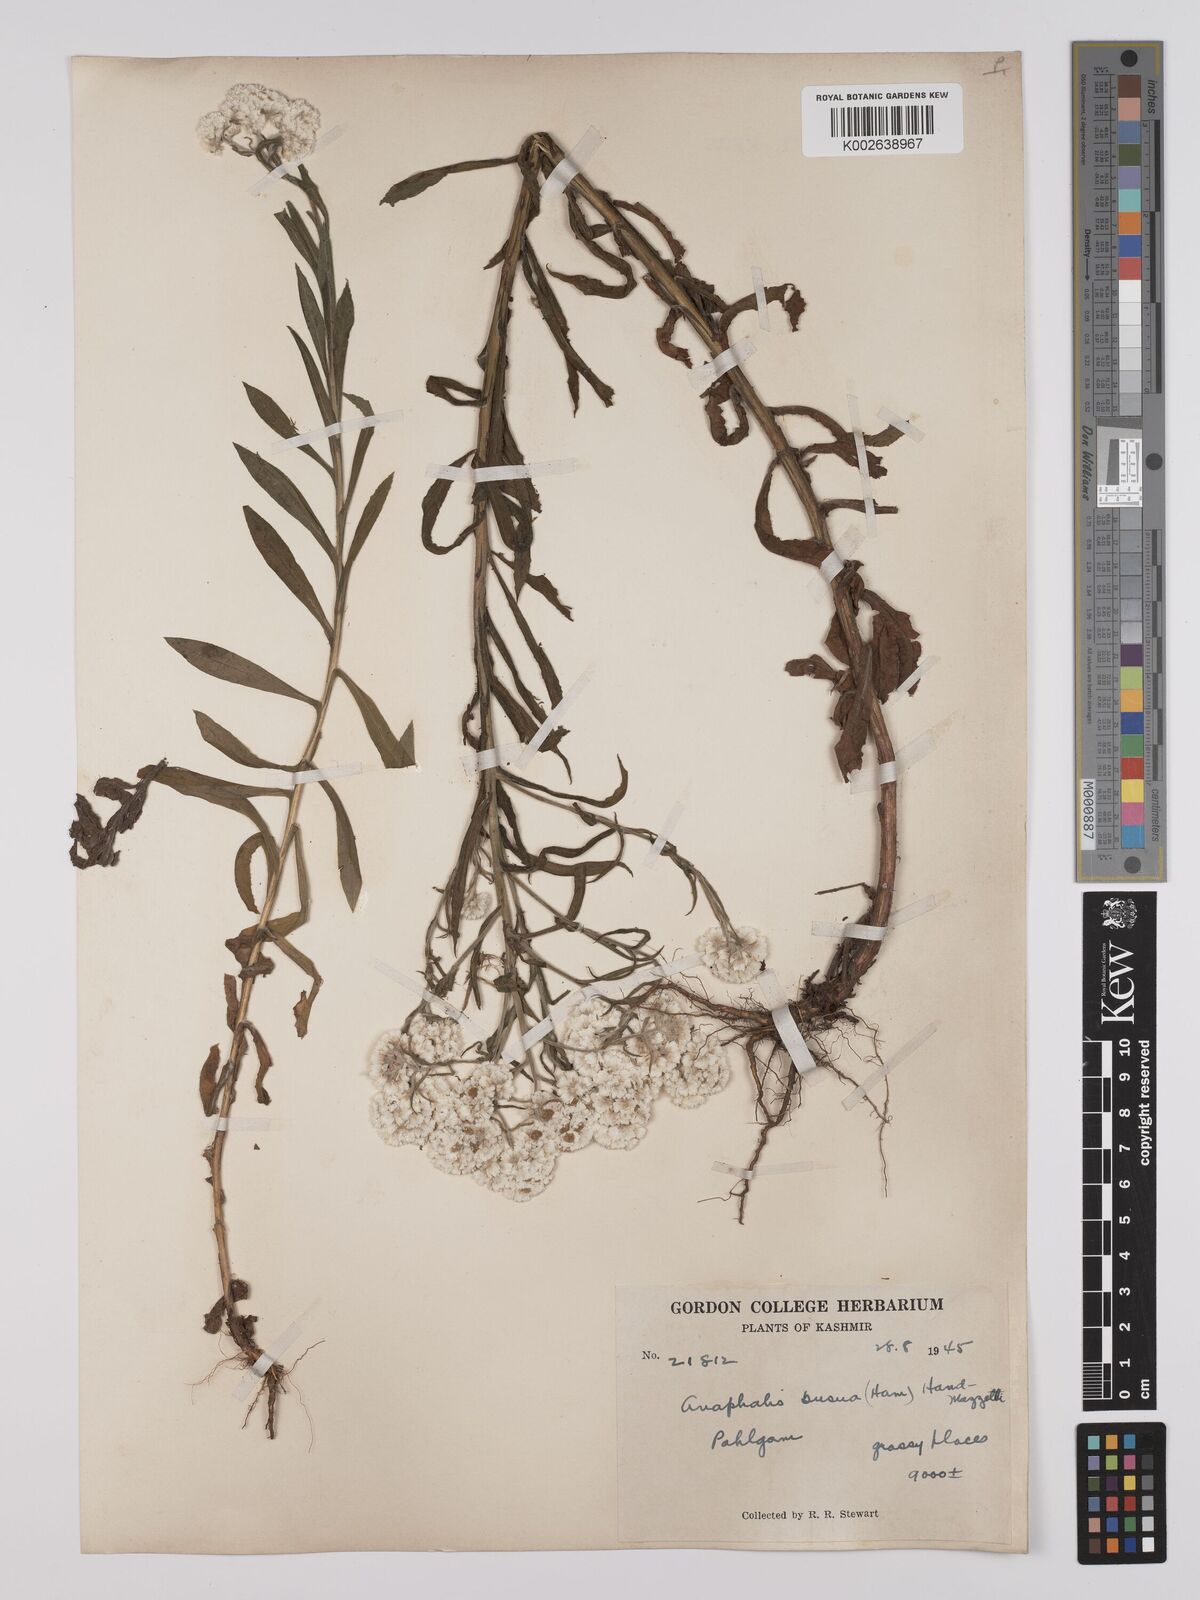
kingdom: Plantae
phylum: Tracheophyta
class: Magnoliopsida
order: Asterales
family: Asteraceae
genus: Anaphalis
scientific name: Anaphalis busua
